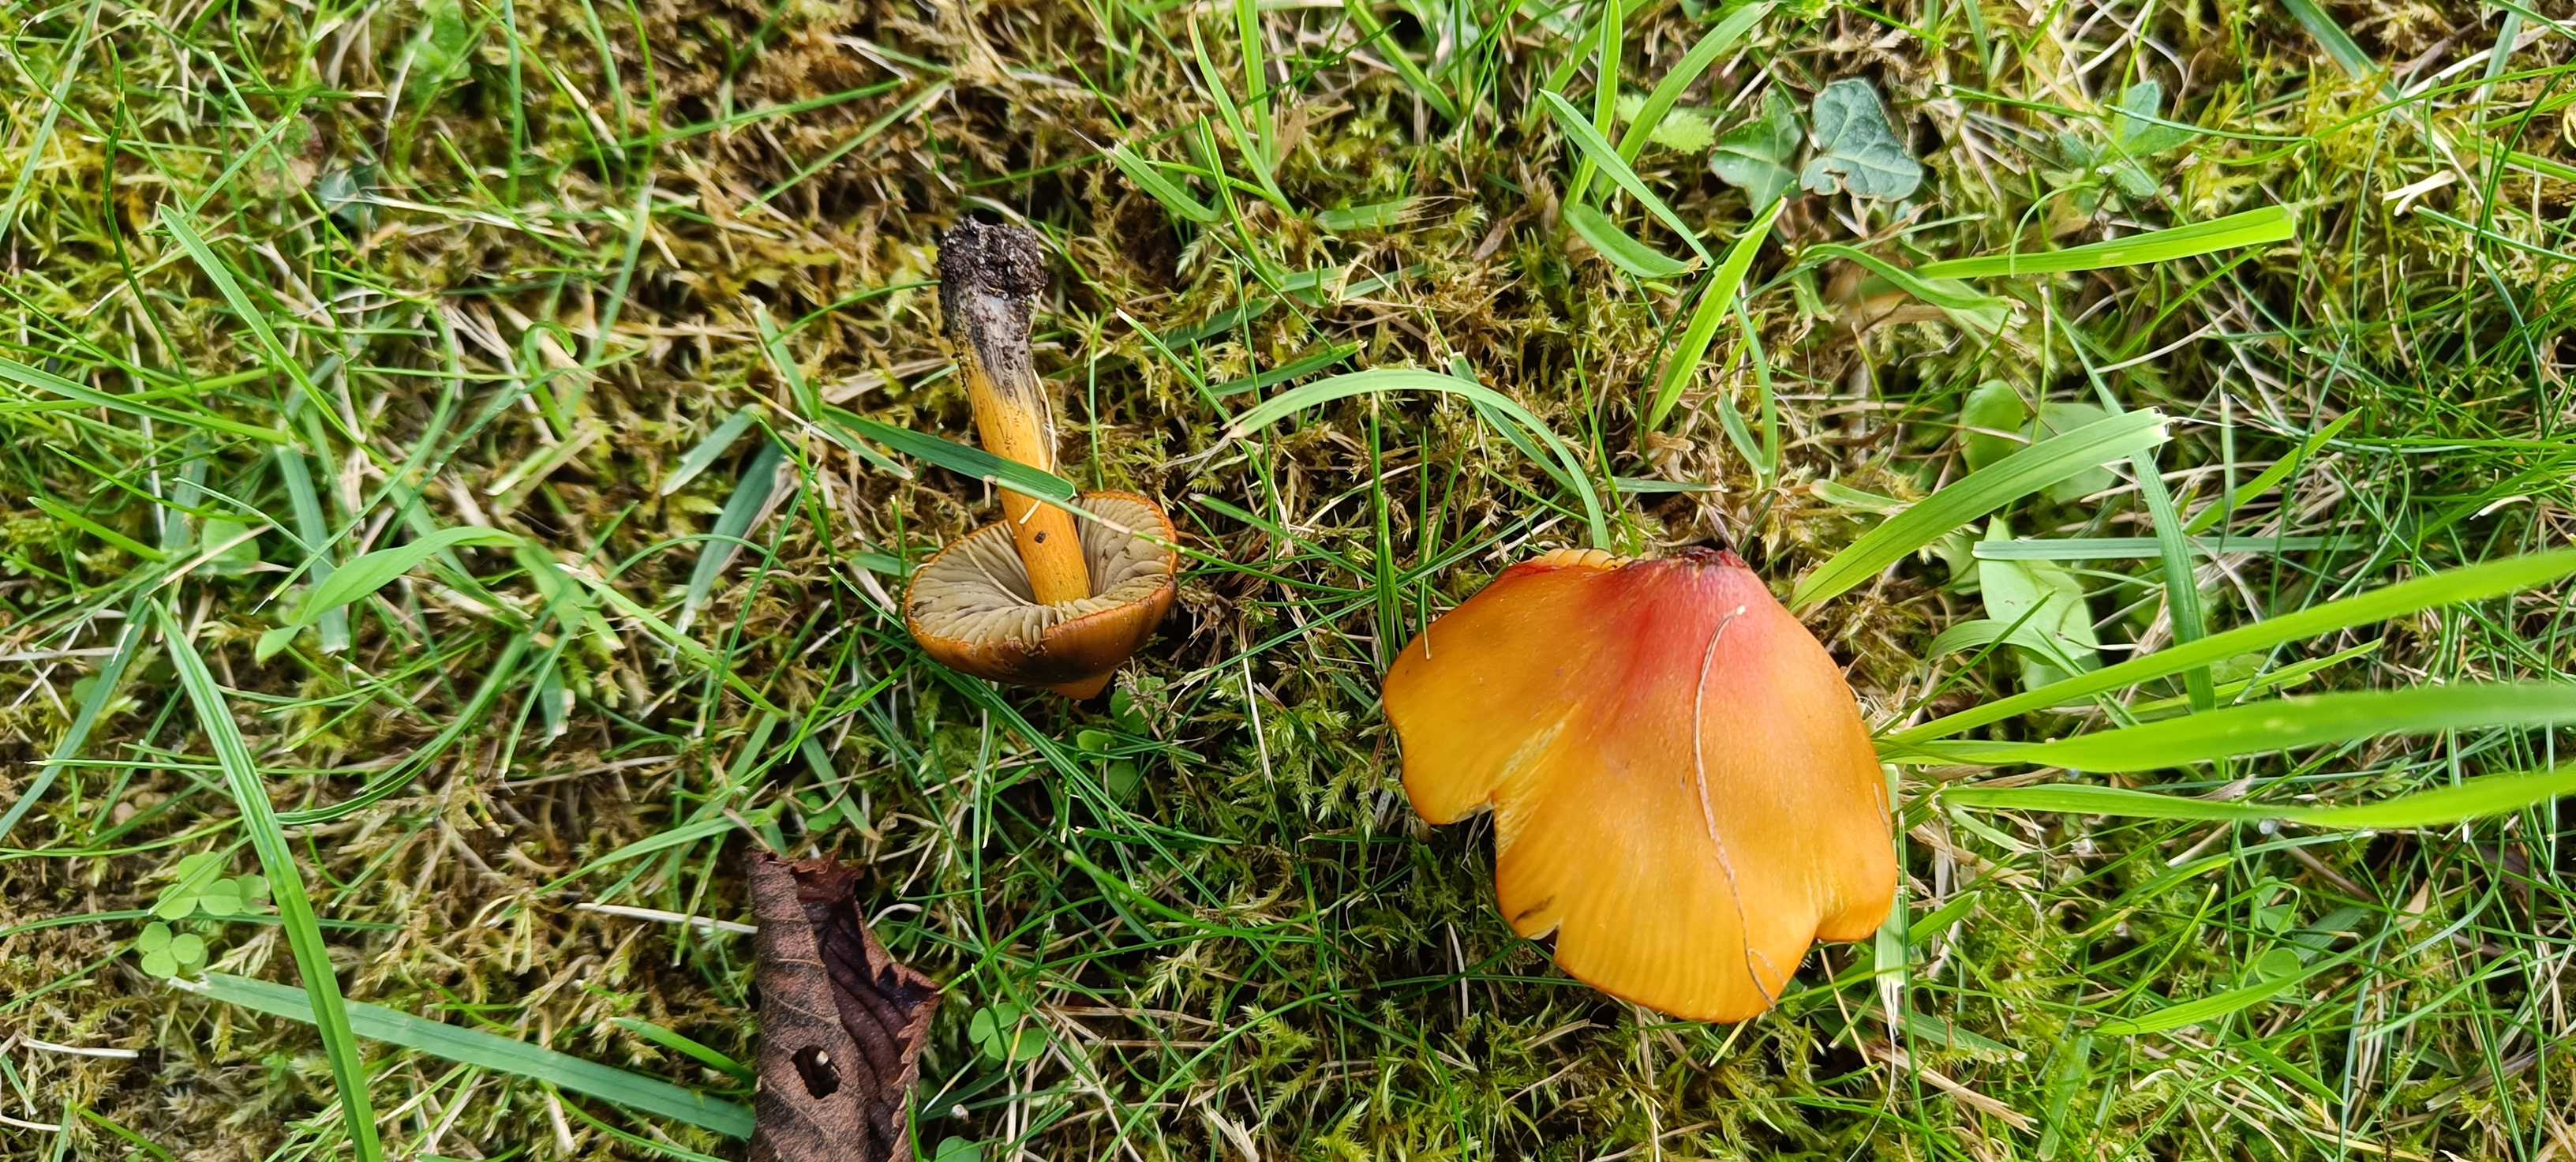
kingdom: Fungi
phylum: Basidiomycota
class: Agaricomycetes
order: Agaricales
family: Hygrophoraceae
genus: Hygrocybe
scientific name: Hygrocybe conica
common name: kegle-vokshat
